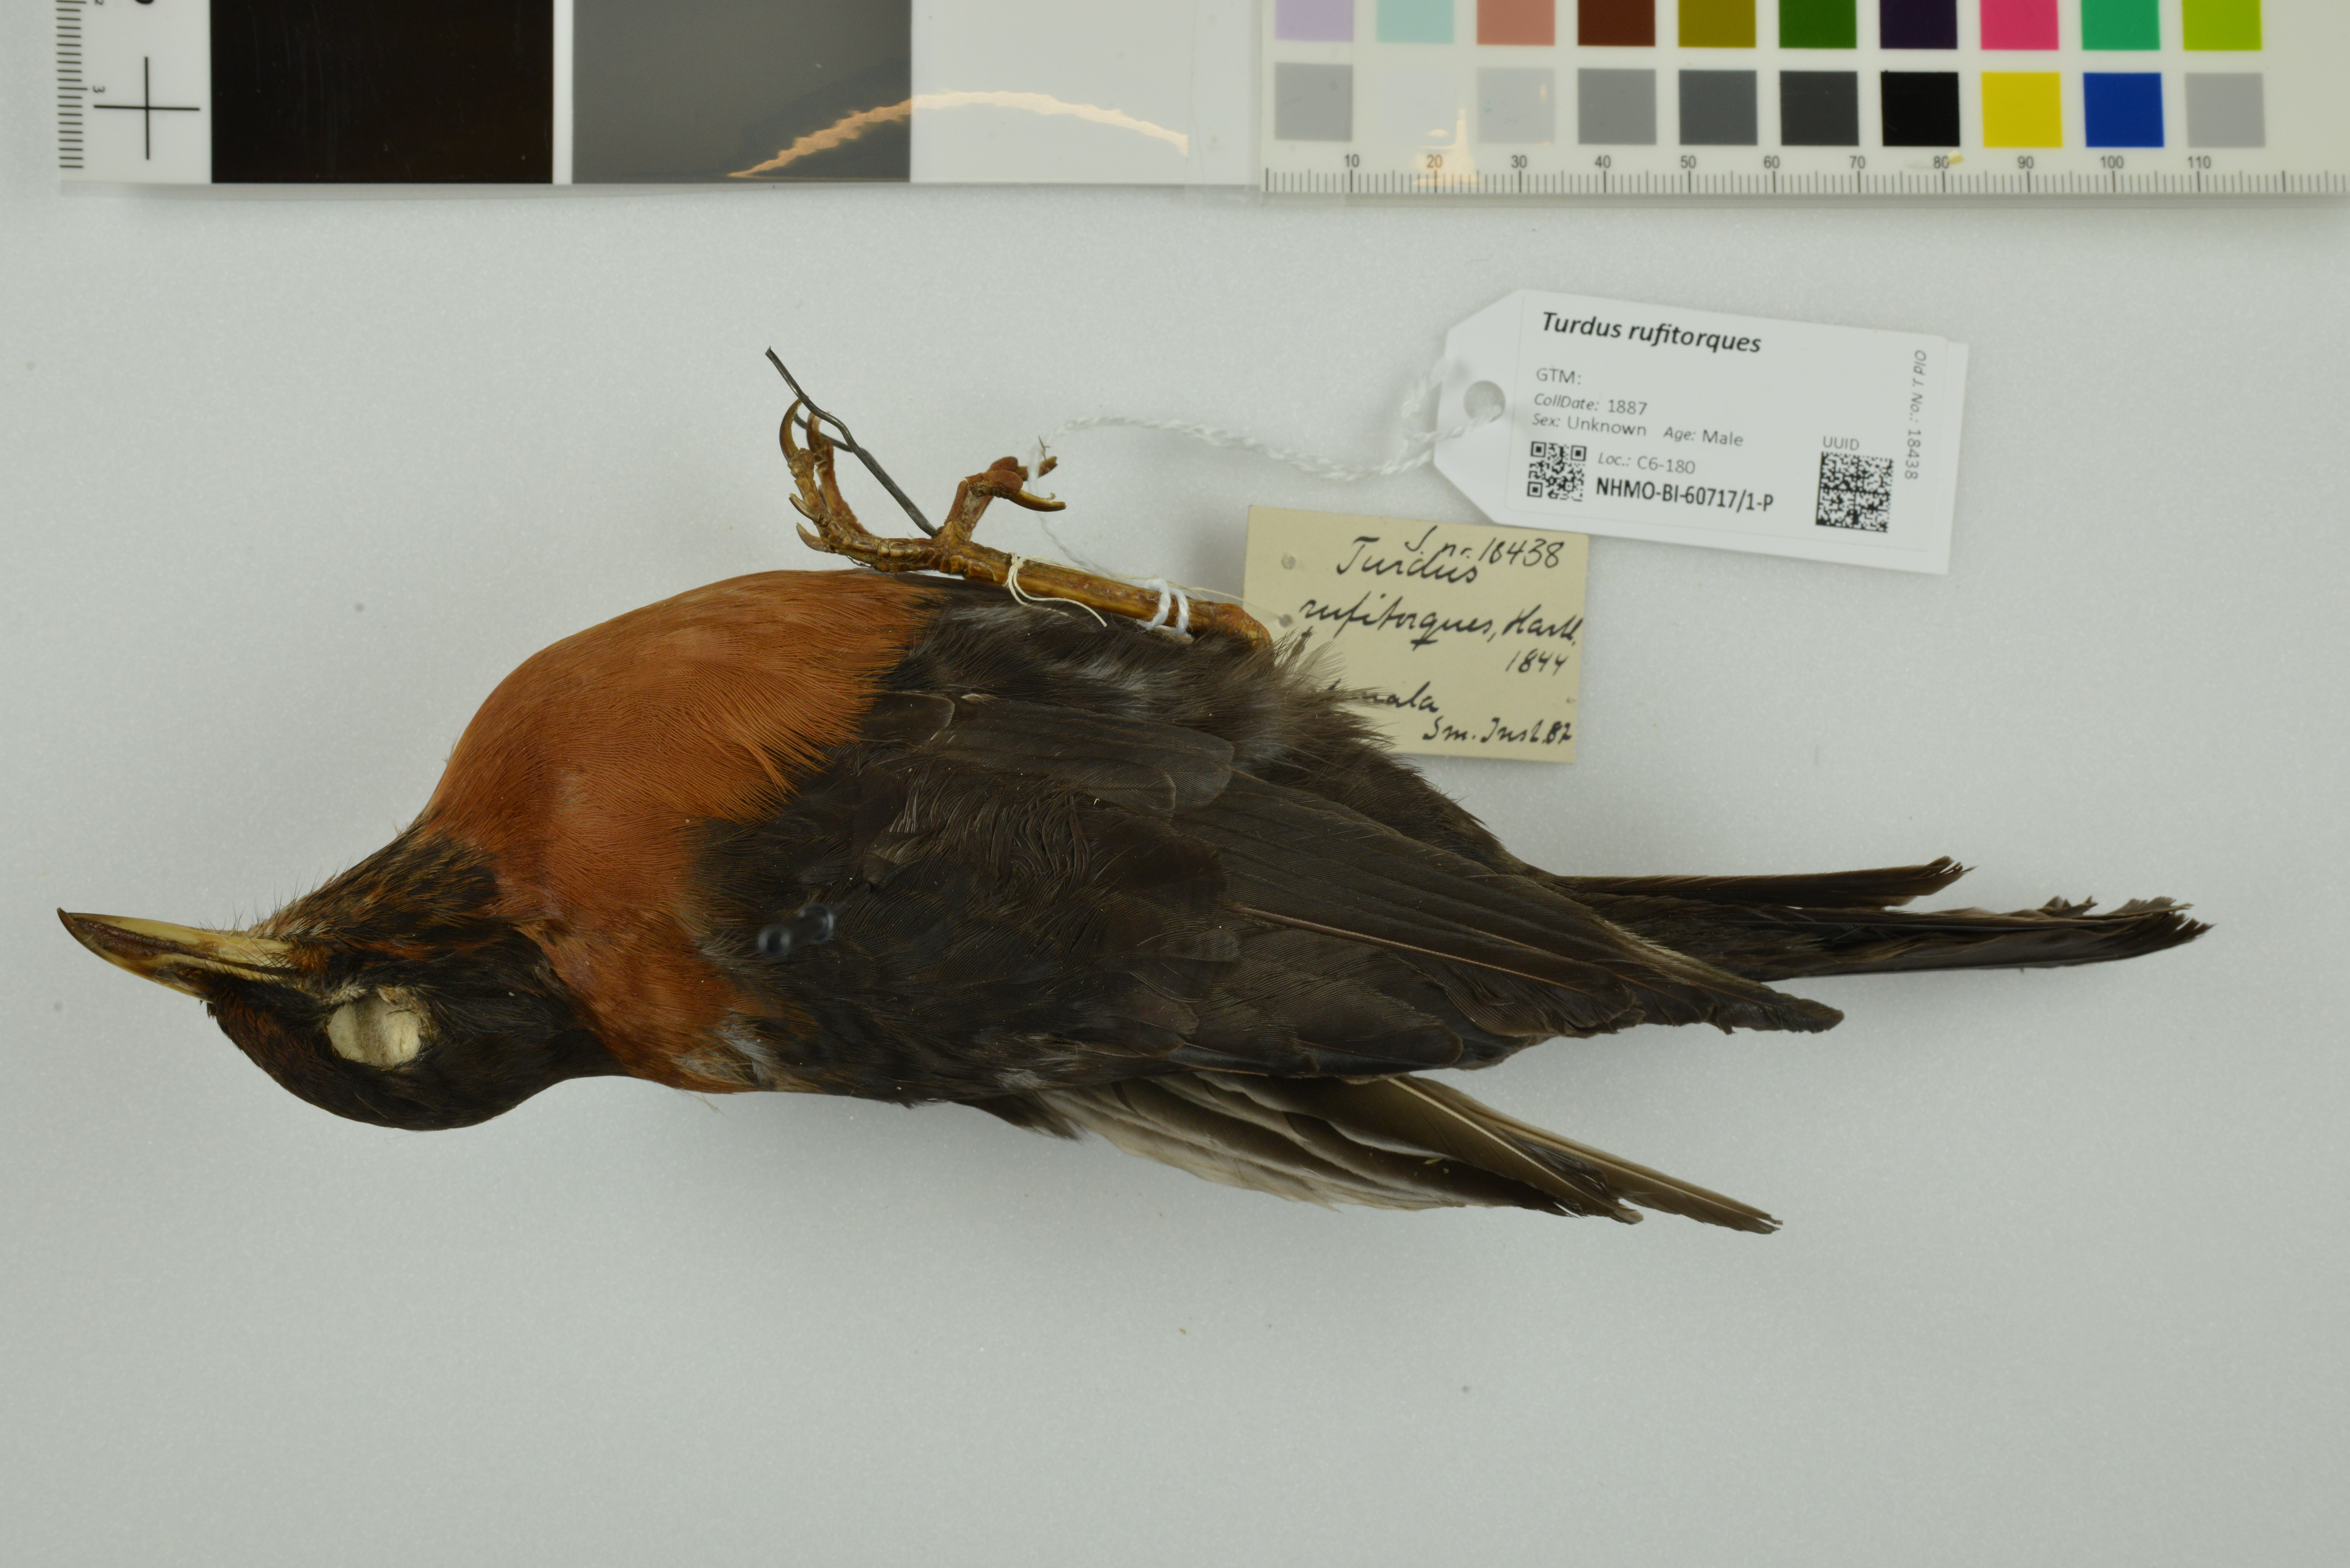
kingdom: Animalia
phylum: Chordata
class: Aves
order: Passeriformes
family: Turdidae
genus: Turdus
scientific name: Turdus rufitorques
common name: Rufous-collared thrush
